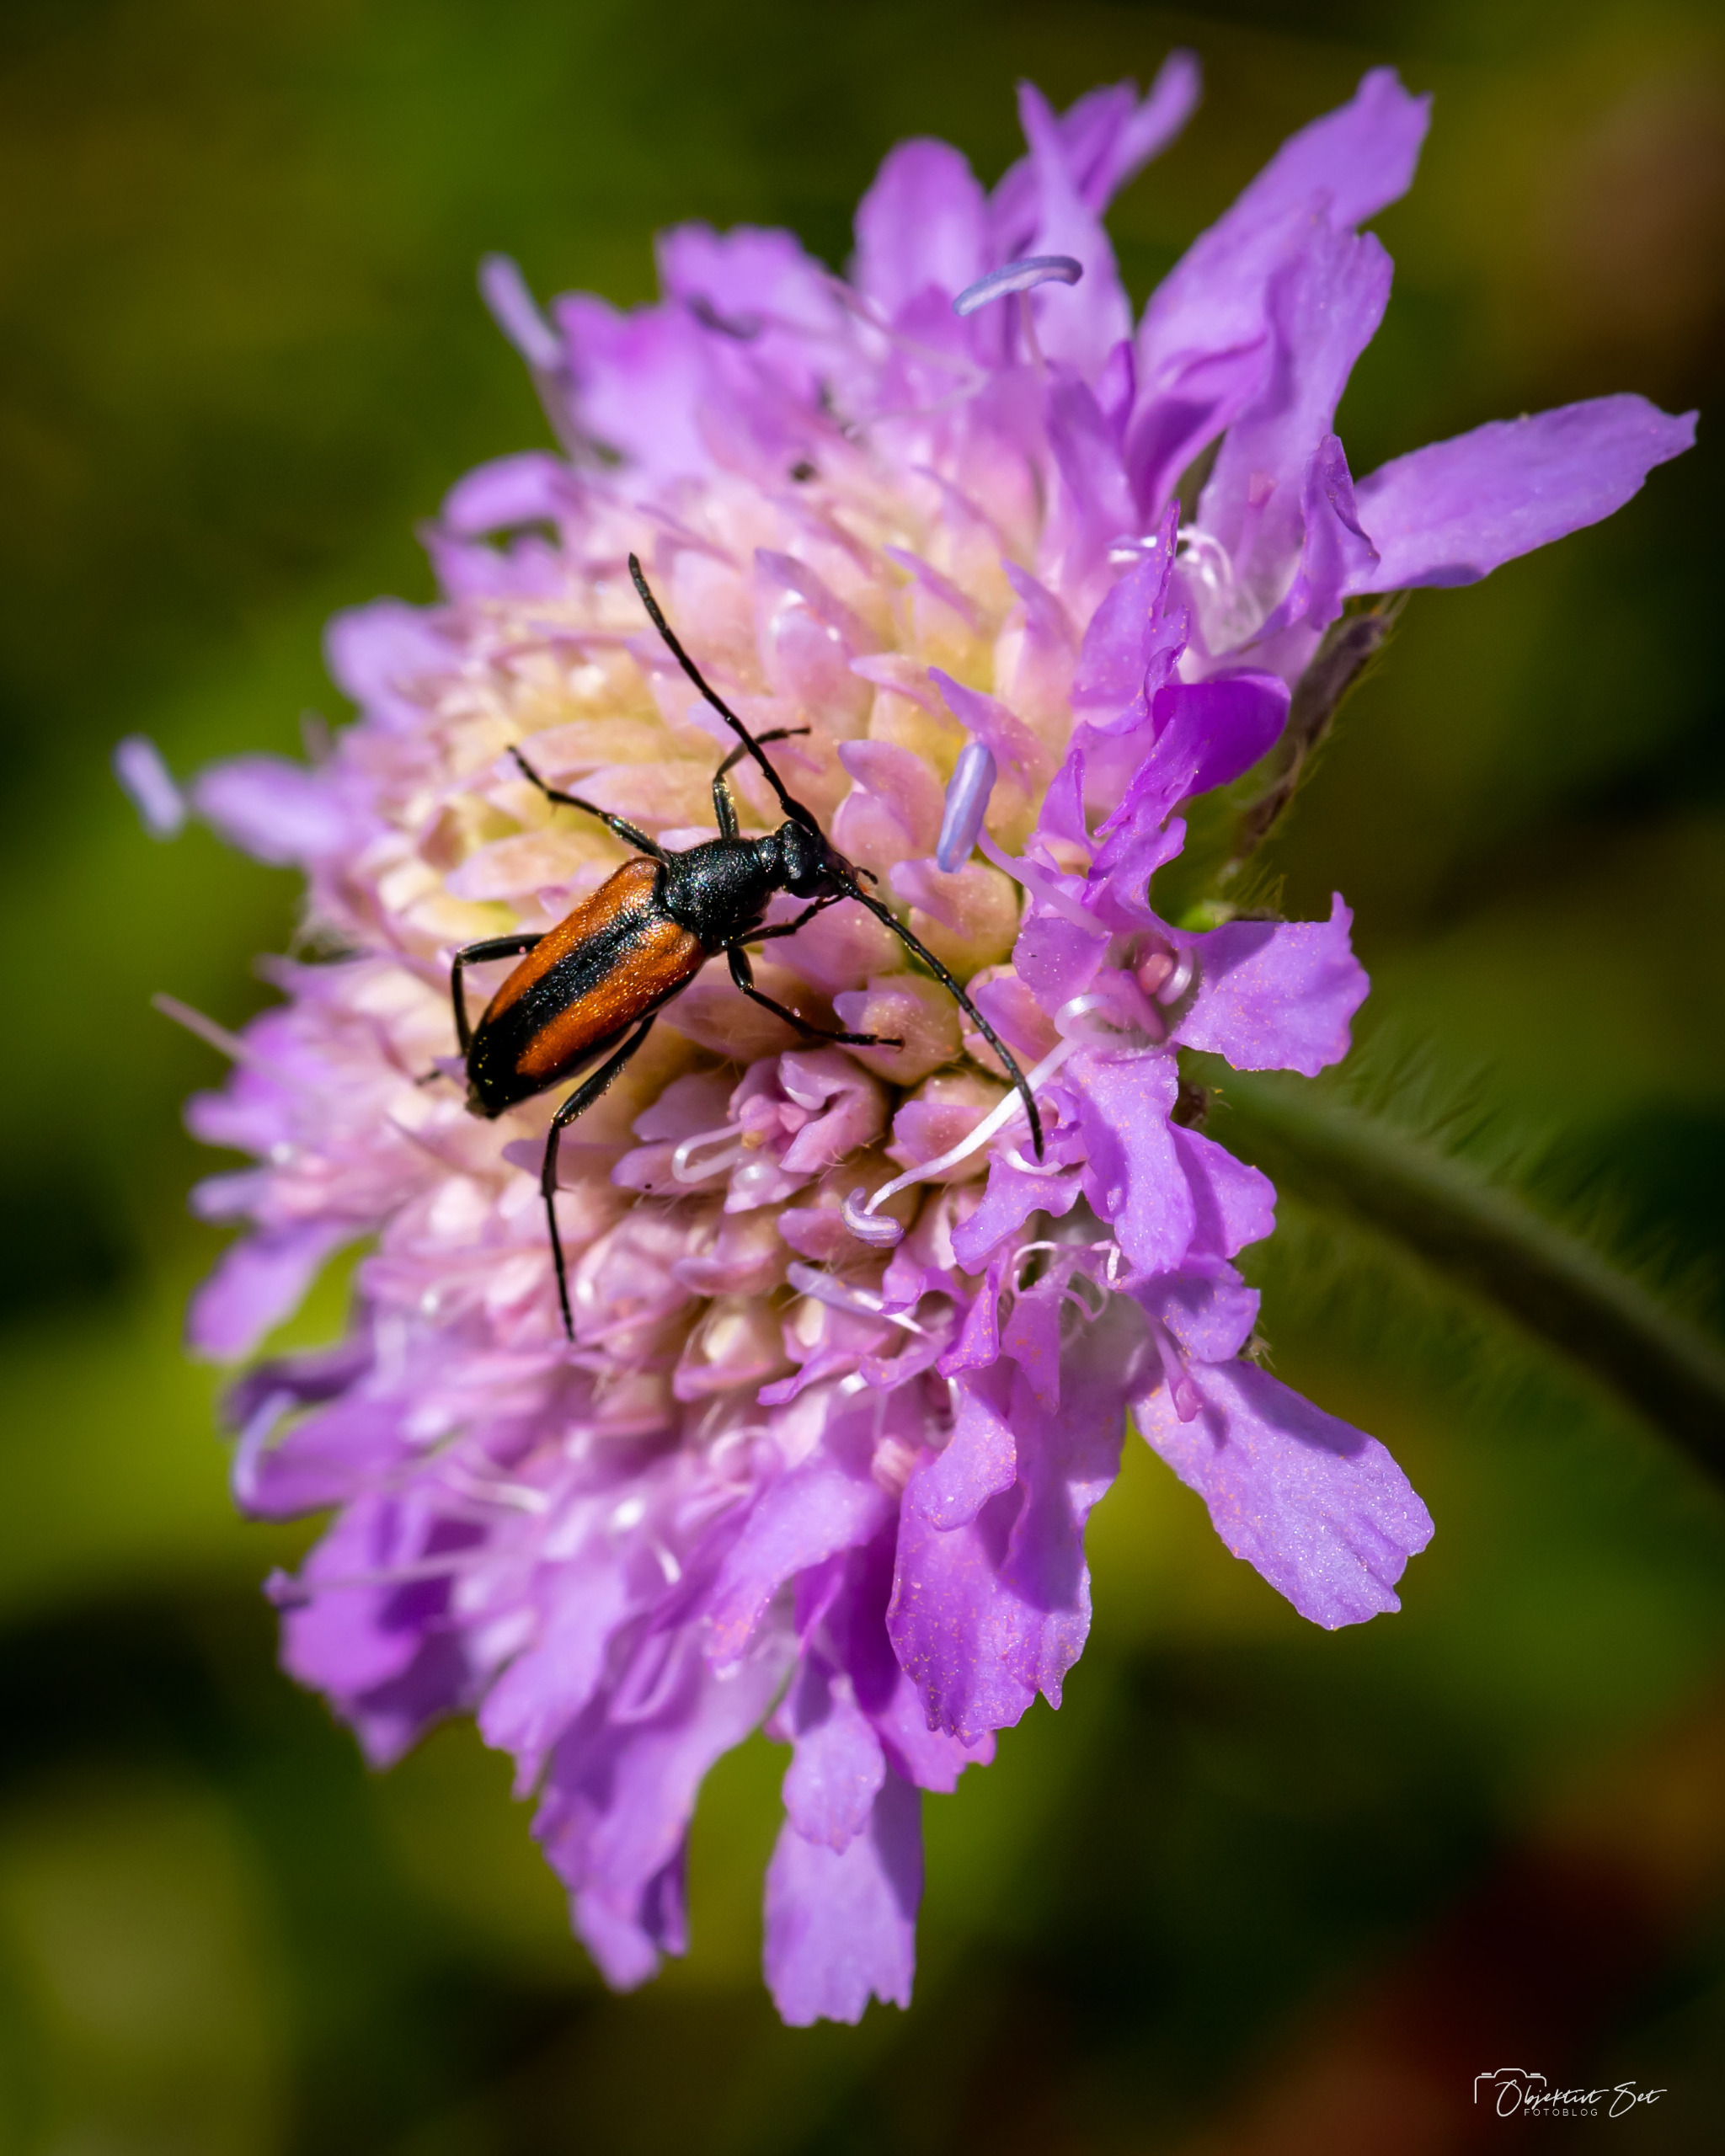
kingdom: Animalia
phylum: Arthropoda
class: Insecta
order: Coleoptera
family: Cerambycidae
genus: Stenurella
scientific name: Stenurella melanura
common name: Sortsømmet blomsterbuk
